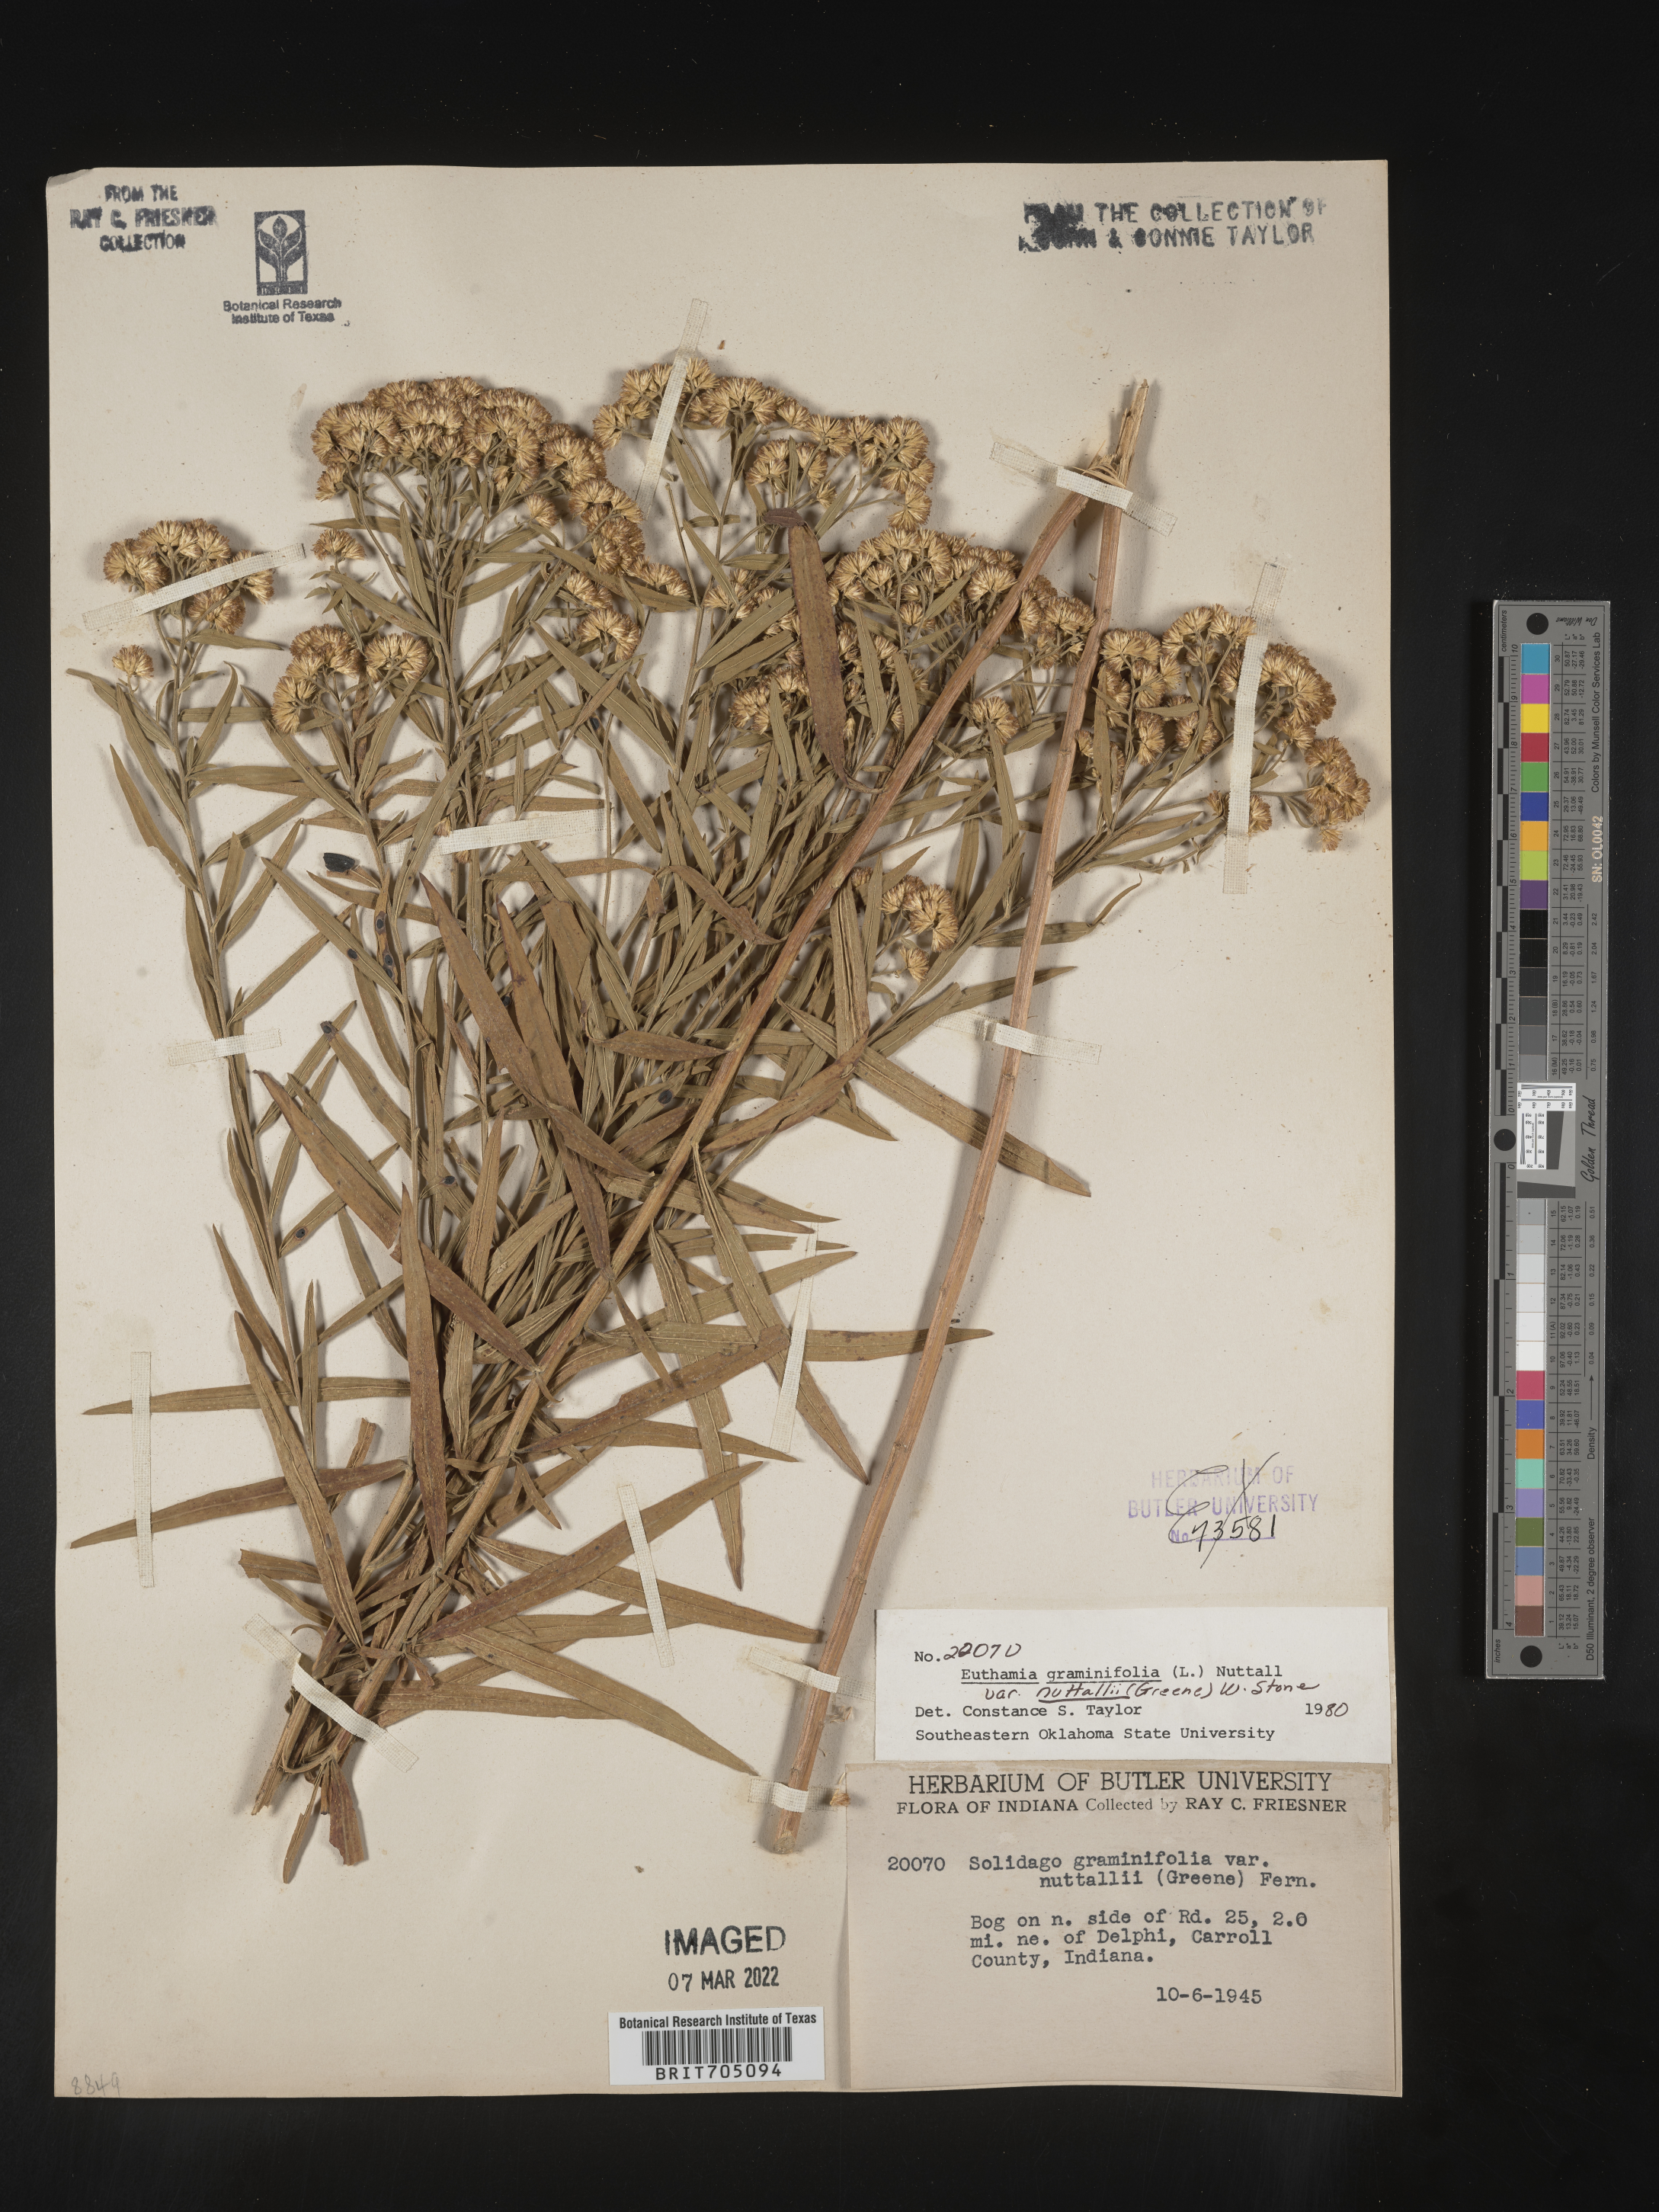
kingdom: Plantae
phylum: Tracheophyta
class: Magnoliopsida
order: Asterales
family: Asteraceae
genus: Euthamia
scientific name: Euthamia graminifolia
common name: Common goldentop
